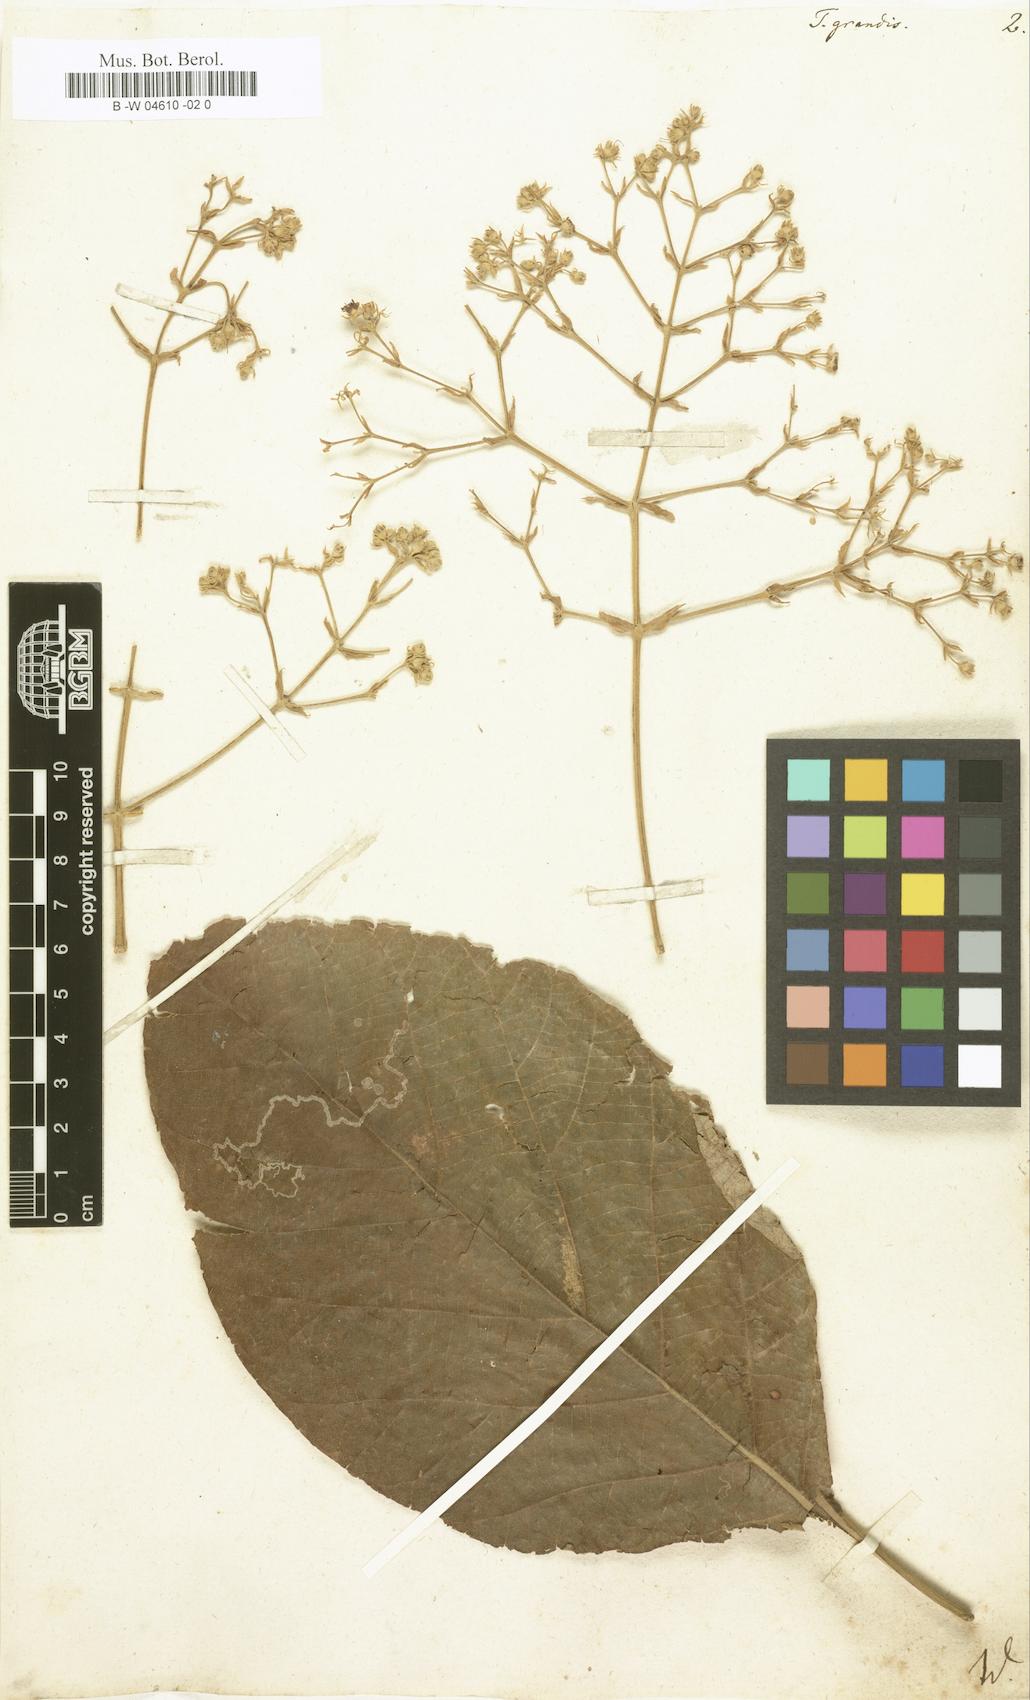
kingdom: Plantae
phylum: Tracheophyta
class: Magnoliopsida
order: Lamiales
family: Lamiaceae
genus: Tectona
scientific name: Tectona grandis
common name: Teak
